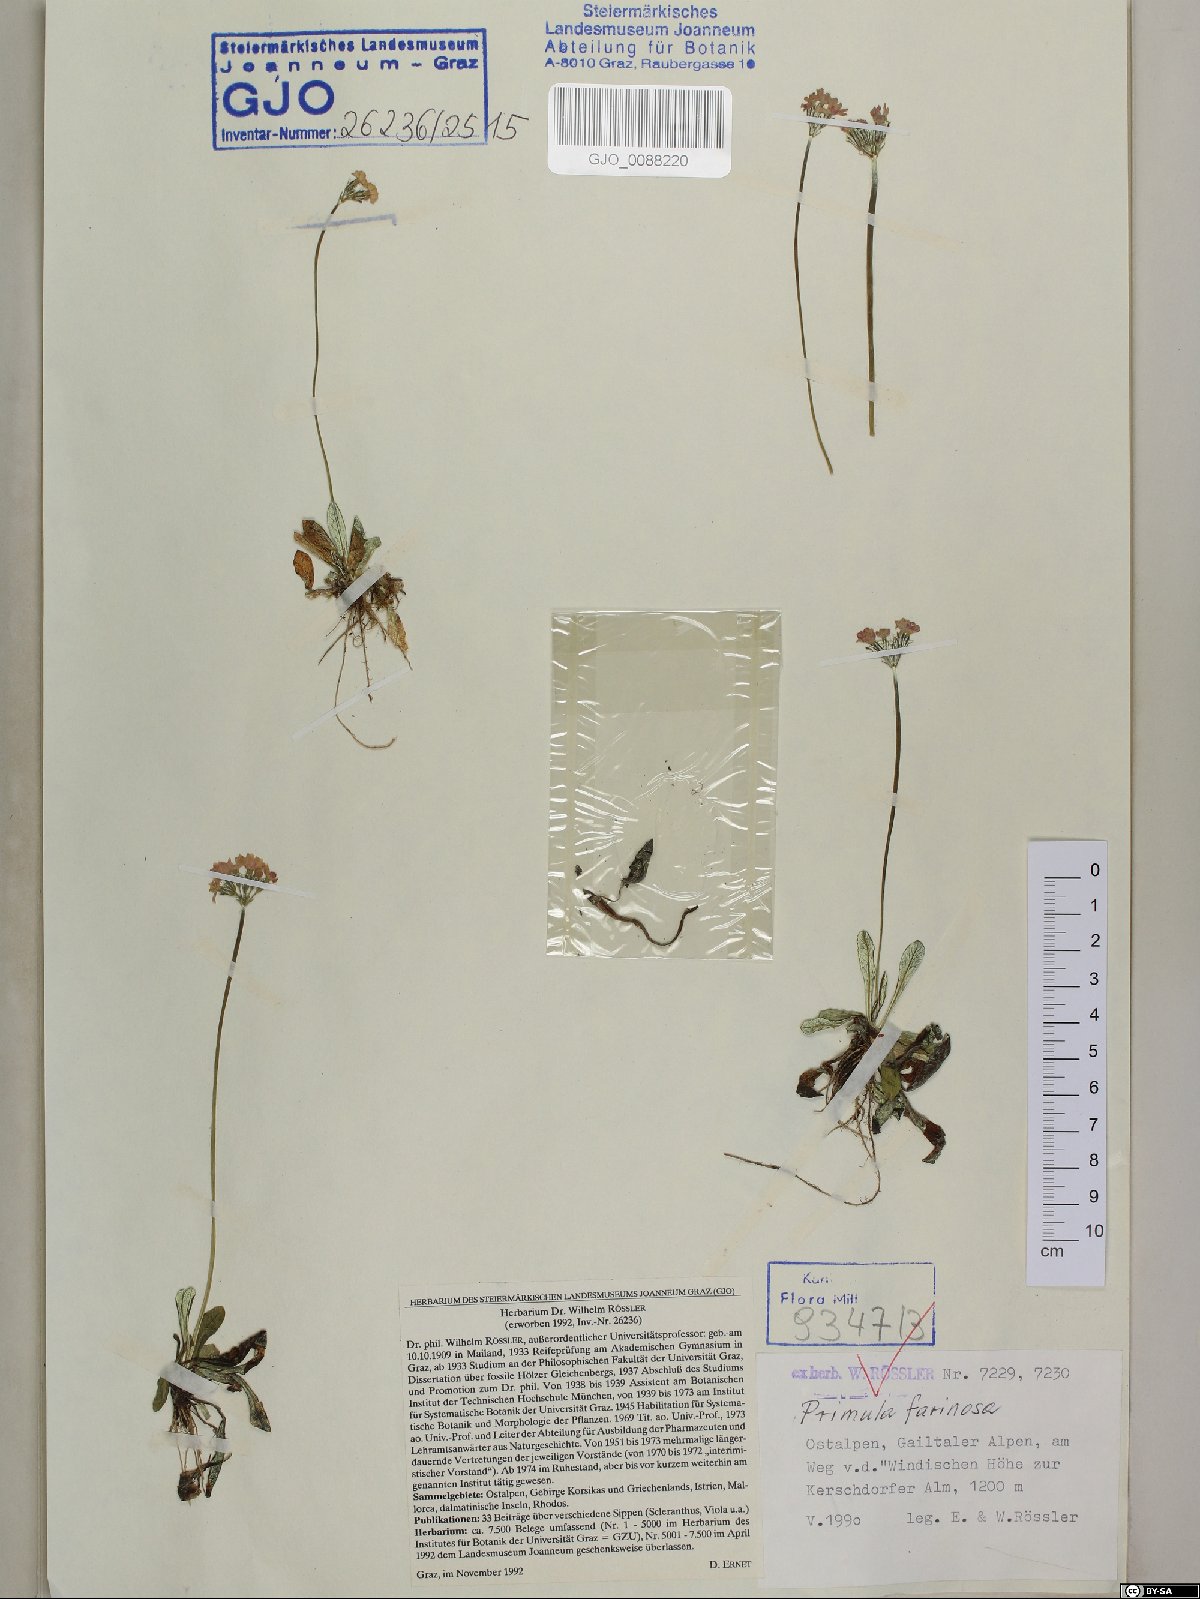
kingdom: Plantae
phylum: Tracheophyta
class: Magnoliopsida
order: Ericales
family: Primulaceae
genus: Primula
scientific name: Primula farinosa
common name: Bird's-eye primrose
